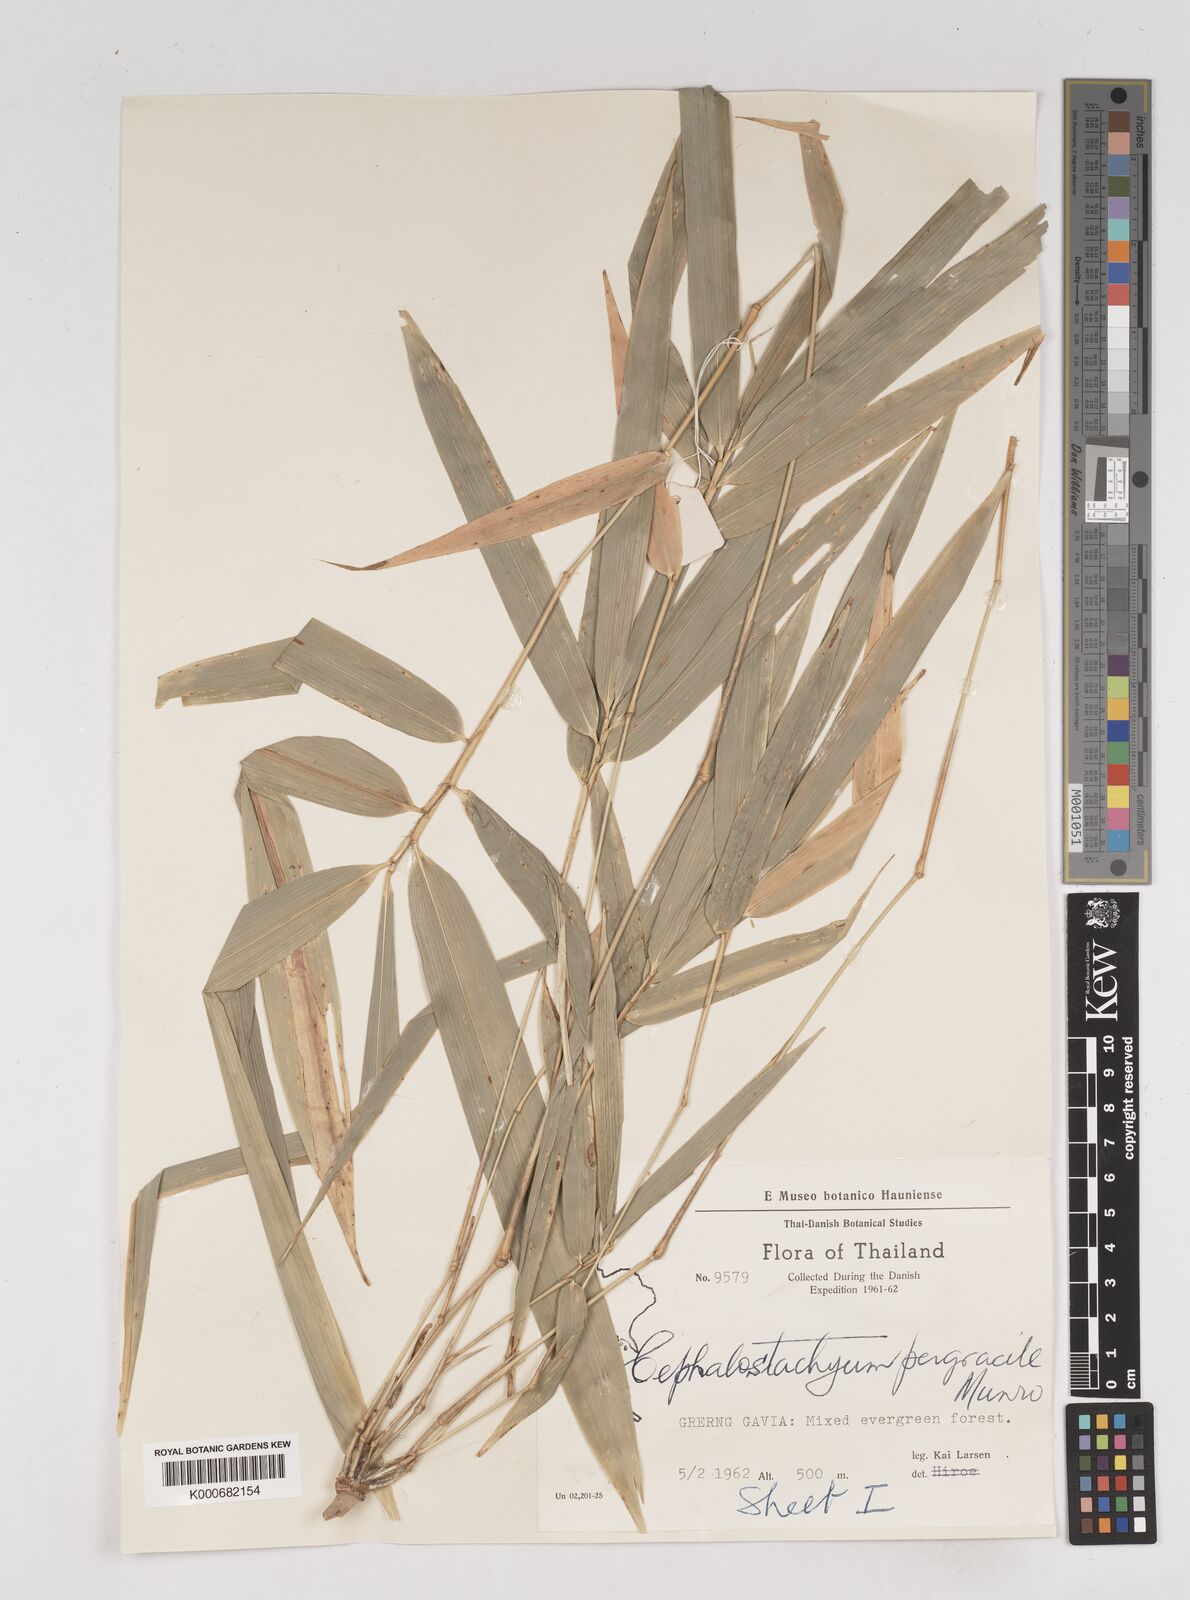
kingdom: Plantae
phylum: Tracheophyta
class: Liliopsida
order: Poales
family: Poaceae
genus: Schizostachyum
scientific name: Schizostachyum pergracile
